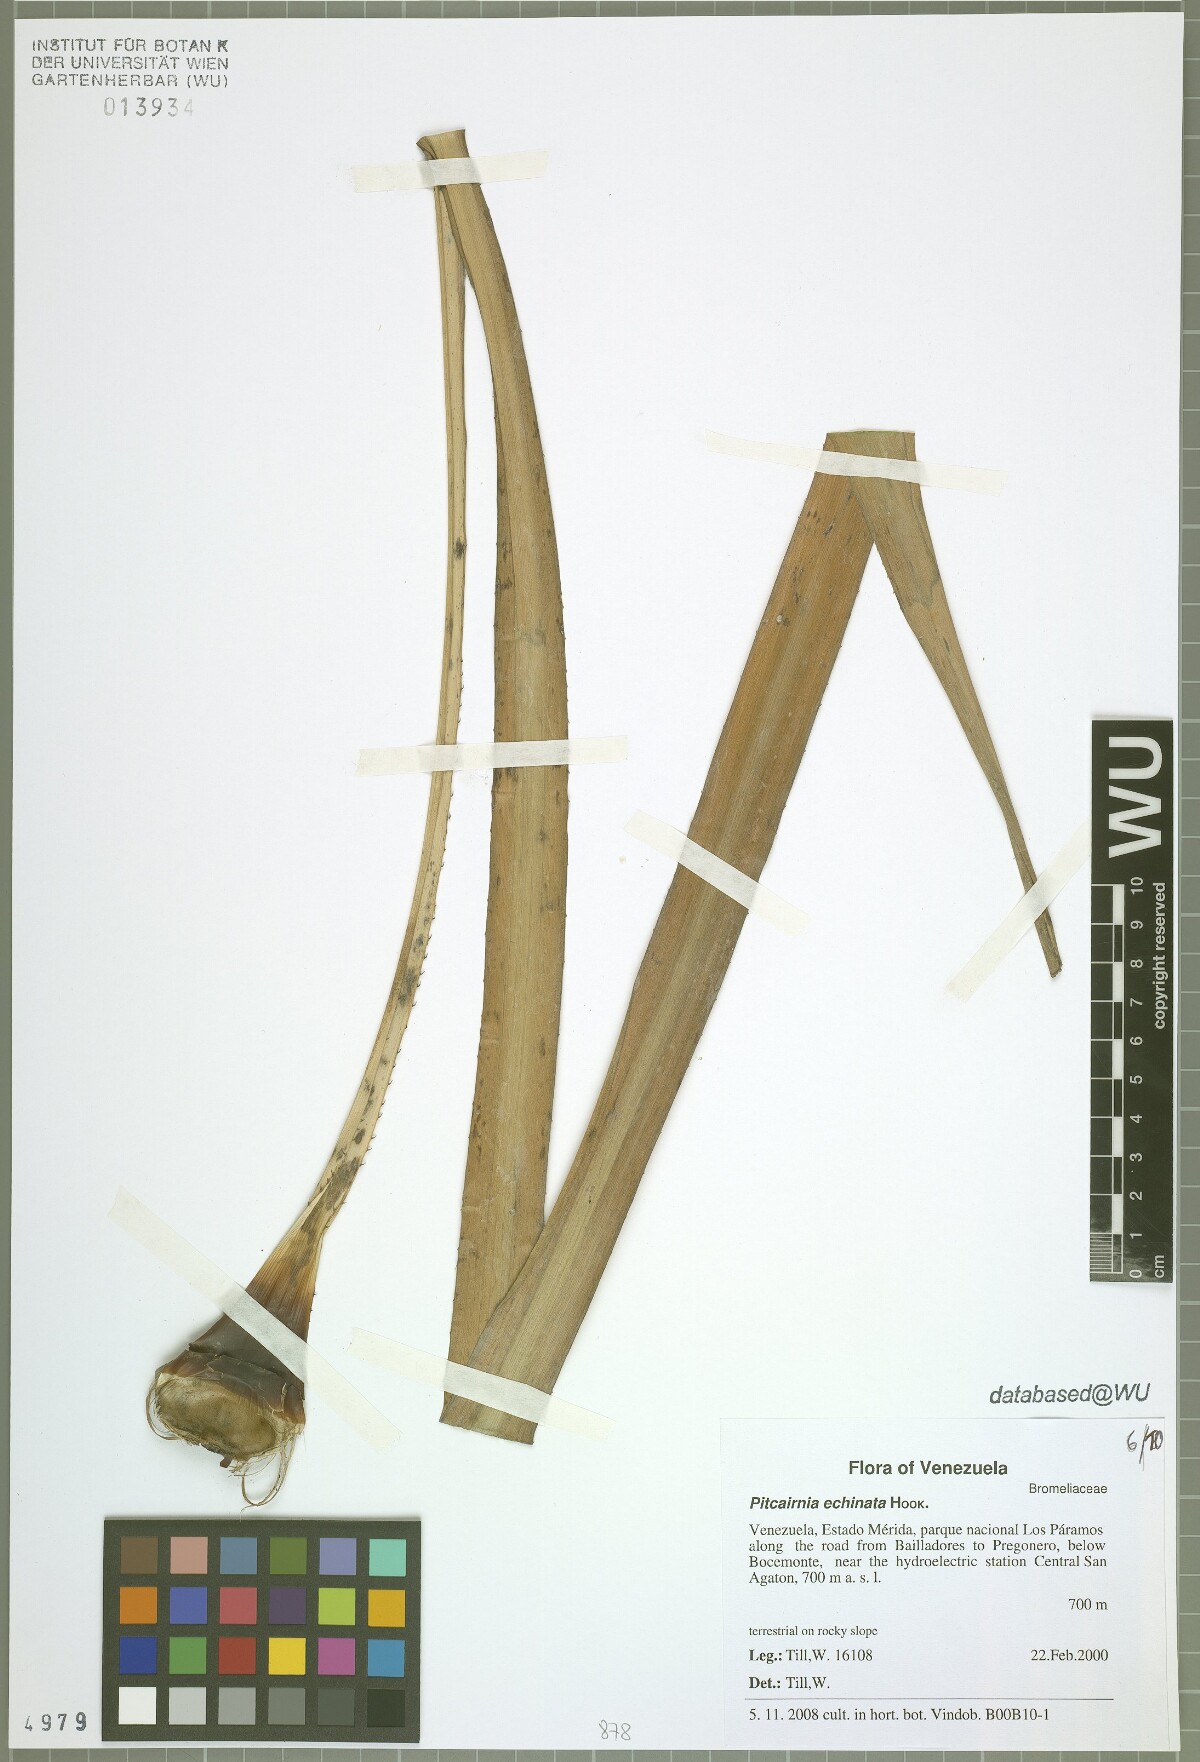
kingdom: Plantae
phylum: Tracheophyta
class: Liliopsida
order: Poales
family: Bromeliaceae
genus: Pitcairnia
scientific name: Pitcairnia echinata
